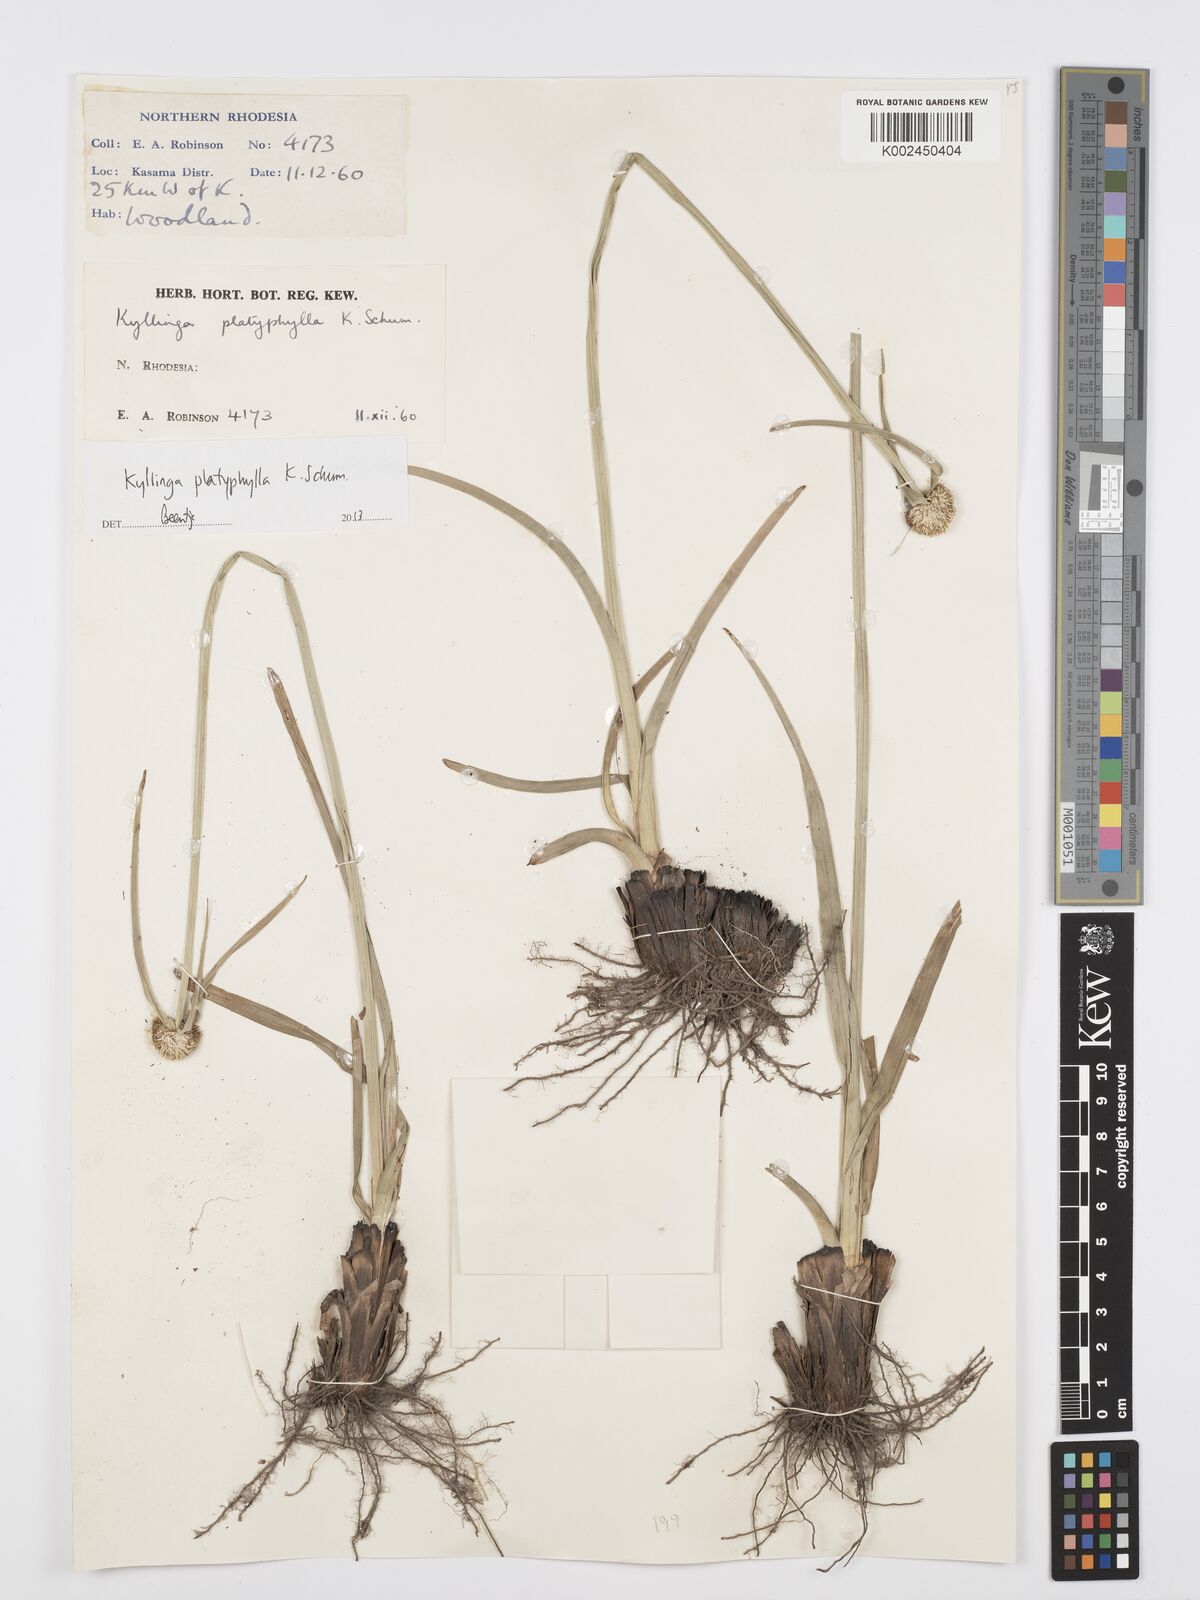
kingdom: Plantae
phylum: Tracheophyta
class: Liliopsida
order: Poales
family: Cyperaceae
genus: Cyperus
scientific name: Cyperus
